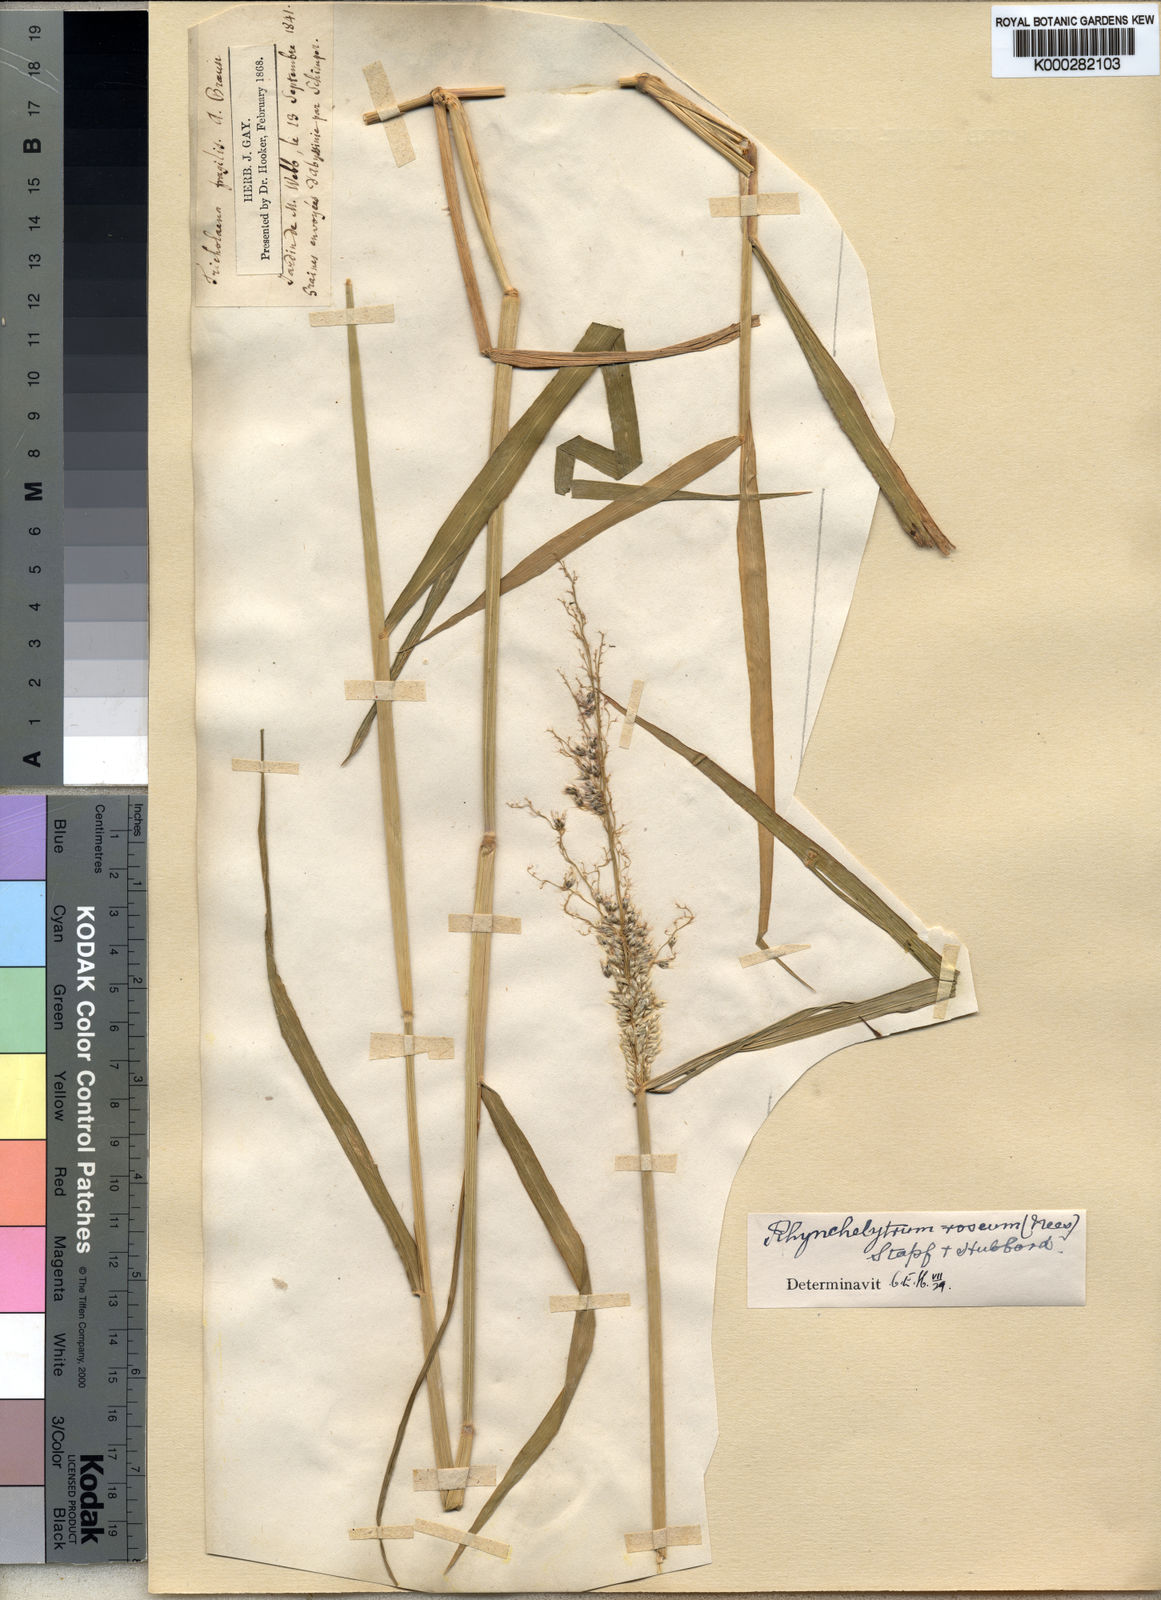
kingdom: Plantae
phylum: Tracheophyta
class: Liliopsida
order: Poales
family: Poaceae
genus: Melinis
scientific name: Melinis repens
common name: Rose natal grass
